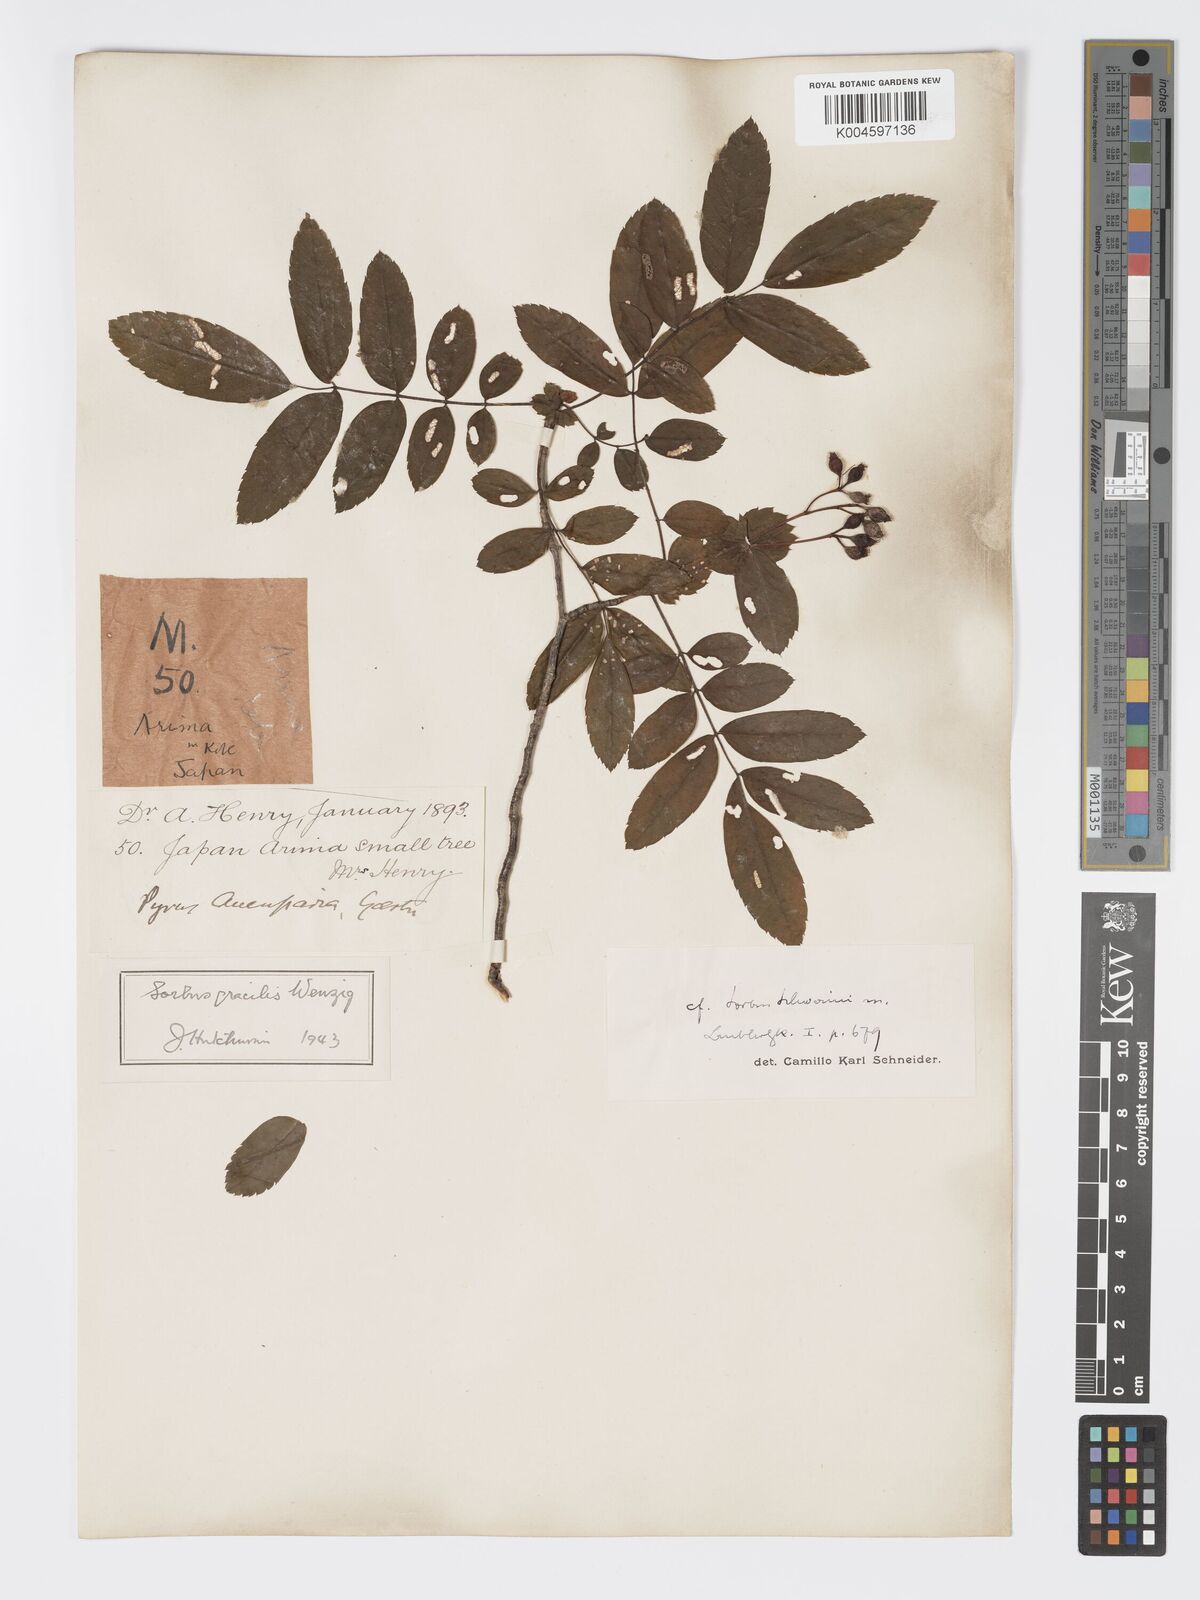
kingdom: Plantae
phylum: Tracheophyta
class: Magnoliopsida
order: Rosales
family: Rosaceae
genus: Sorbus
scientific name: Sorbus gracilis
